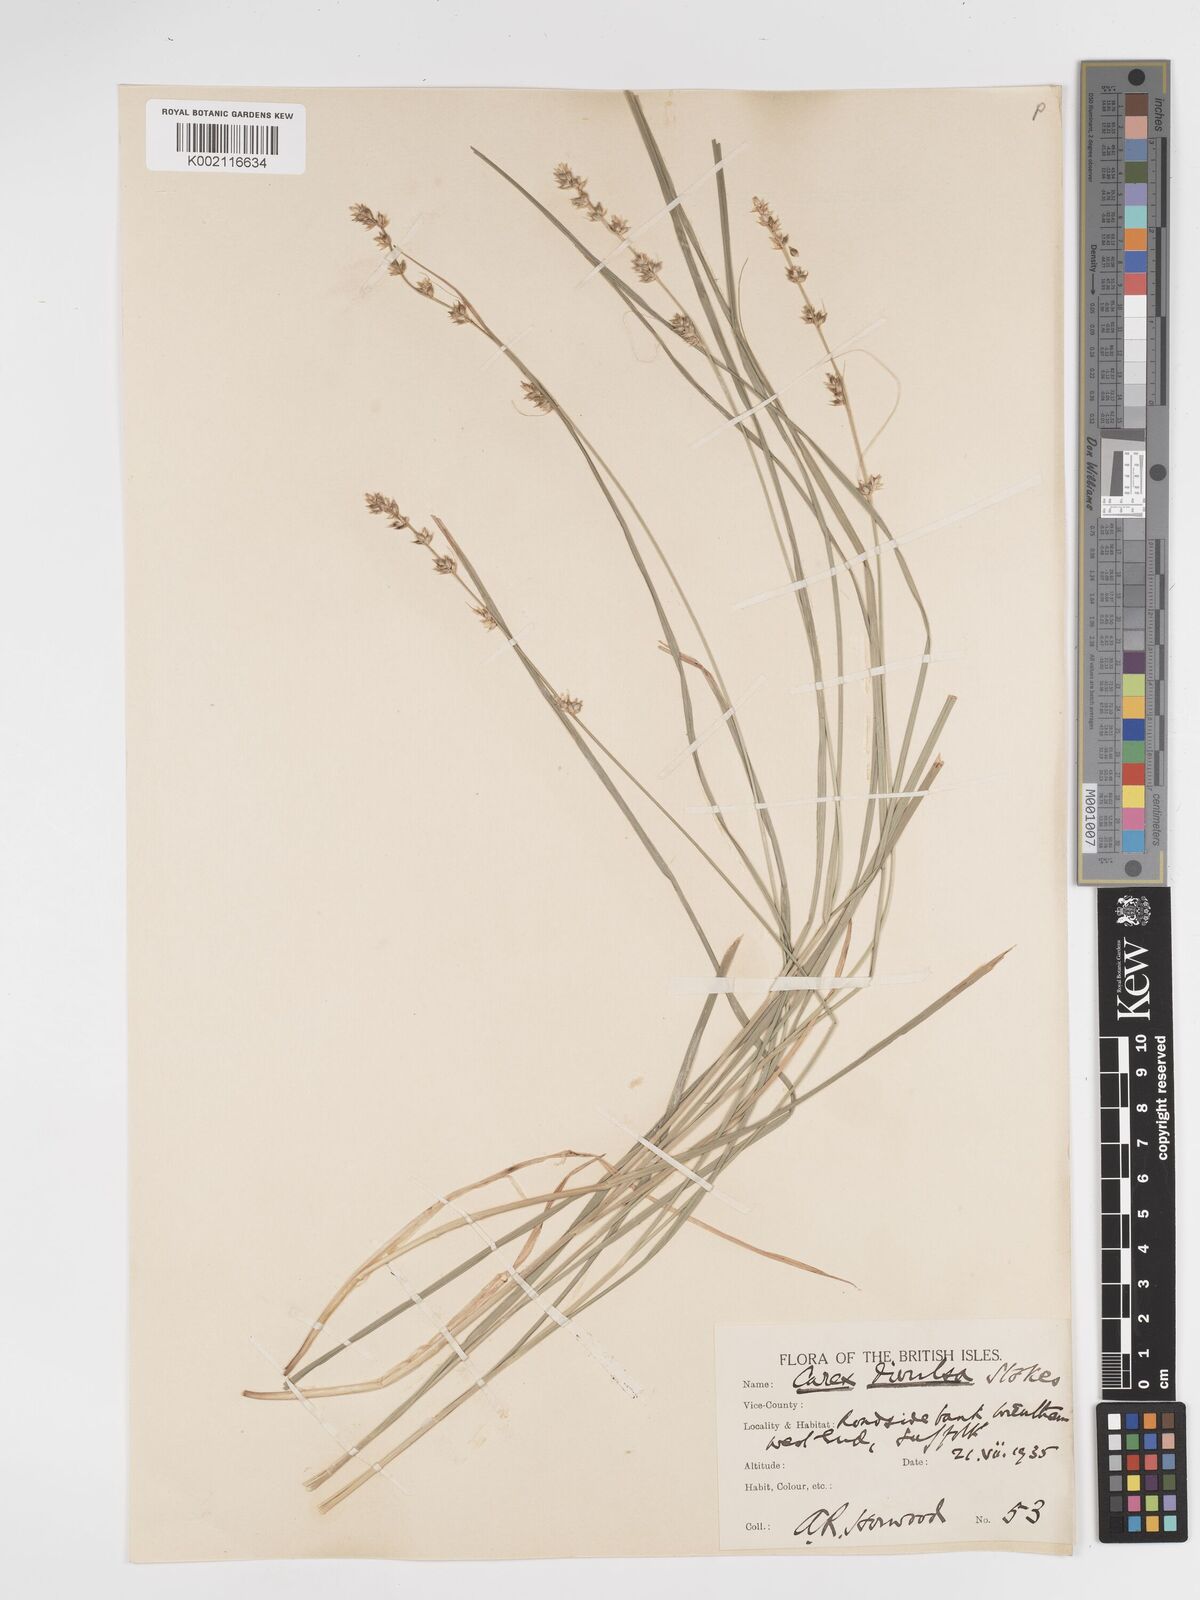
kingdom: Plantae
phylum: Tracheophyta
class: Liliopsida
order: Poales
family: Cyperaceae
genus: Carex
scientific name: Carex divulsa
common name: Grassland sedge
